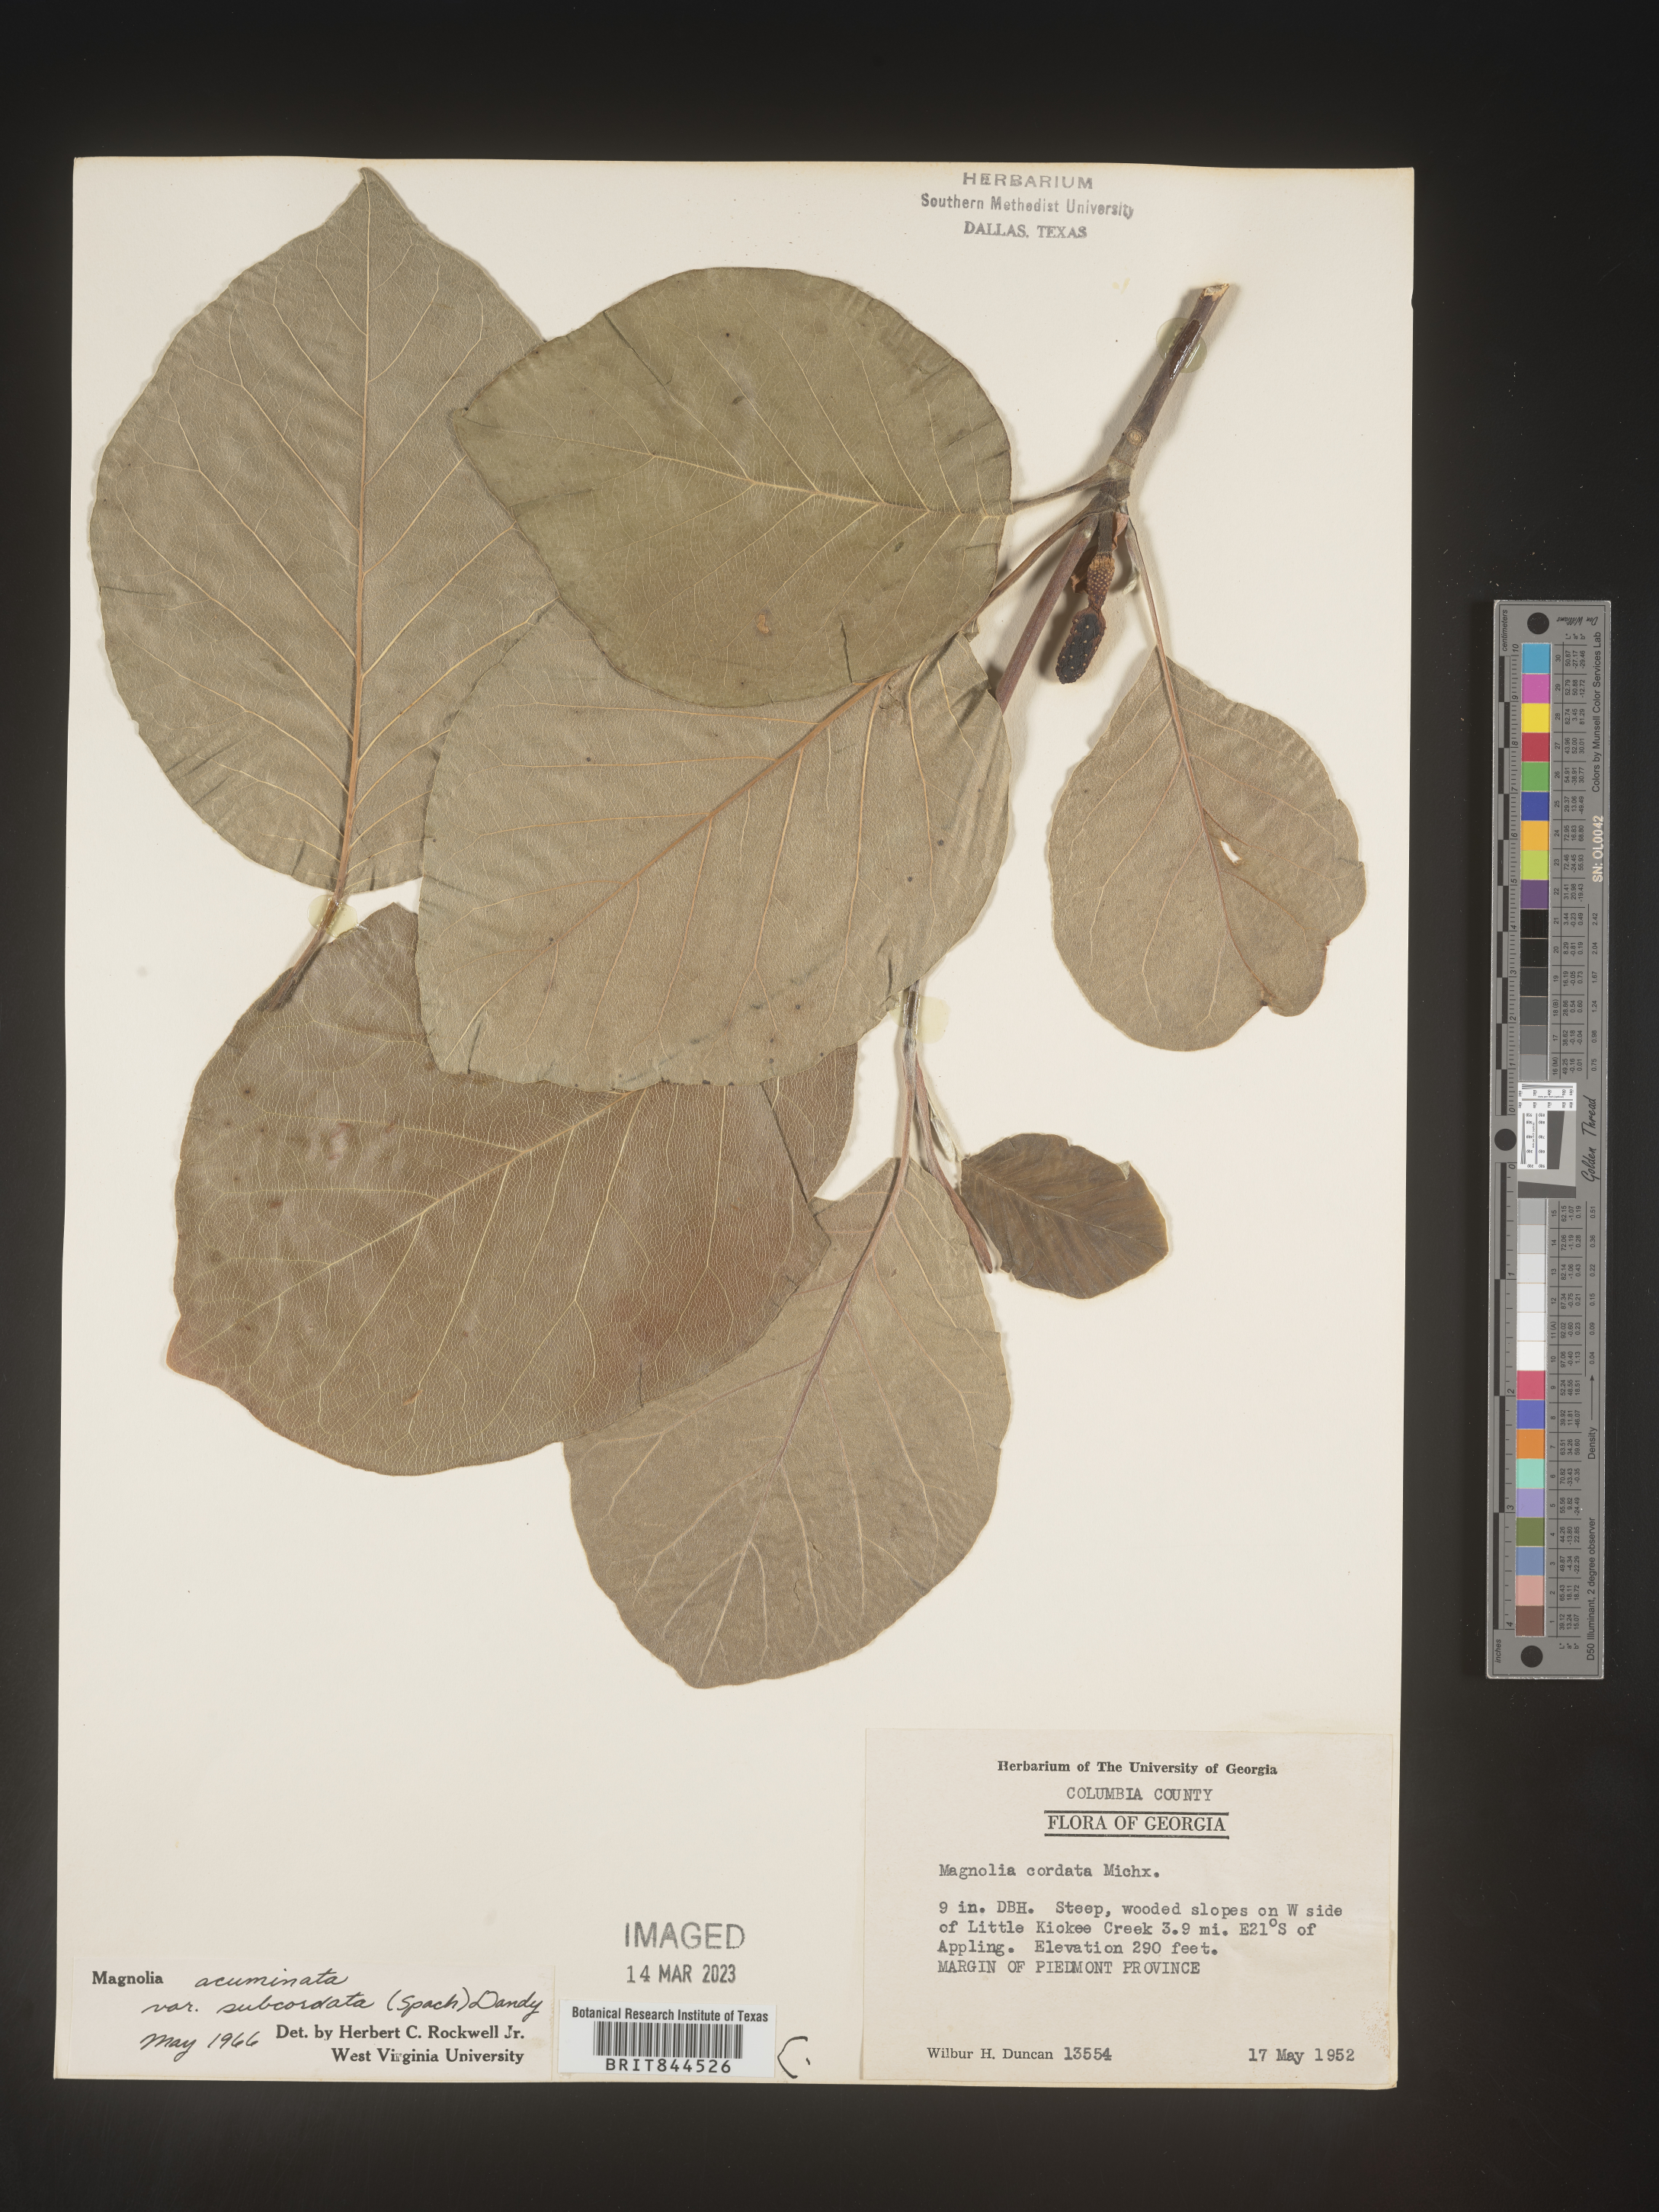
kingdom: Plantae
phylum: Tracheophyta
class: Magnoliopsida
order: Magnoliales
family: Magnoliaceae
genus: Magnolia
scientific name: Magnolia acuminata
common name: Cucumber magnolia
